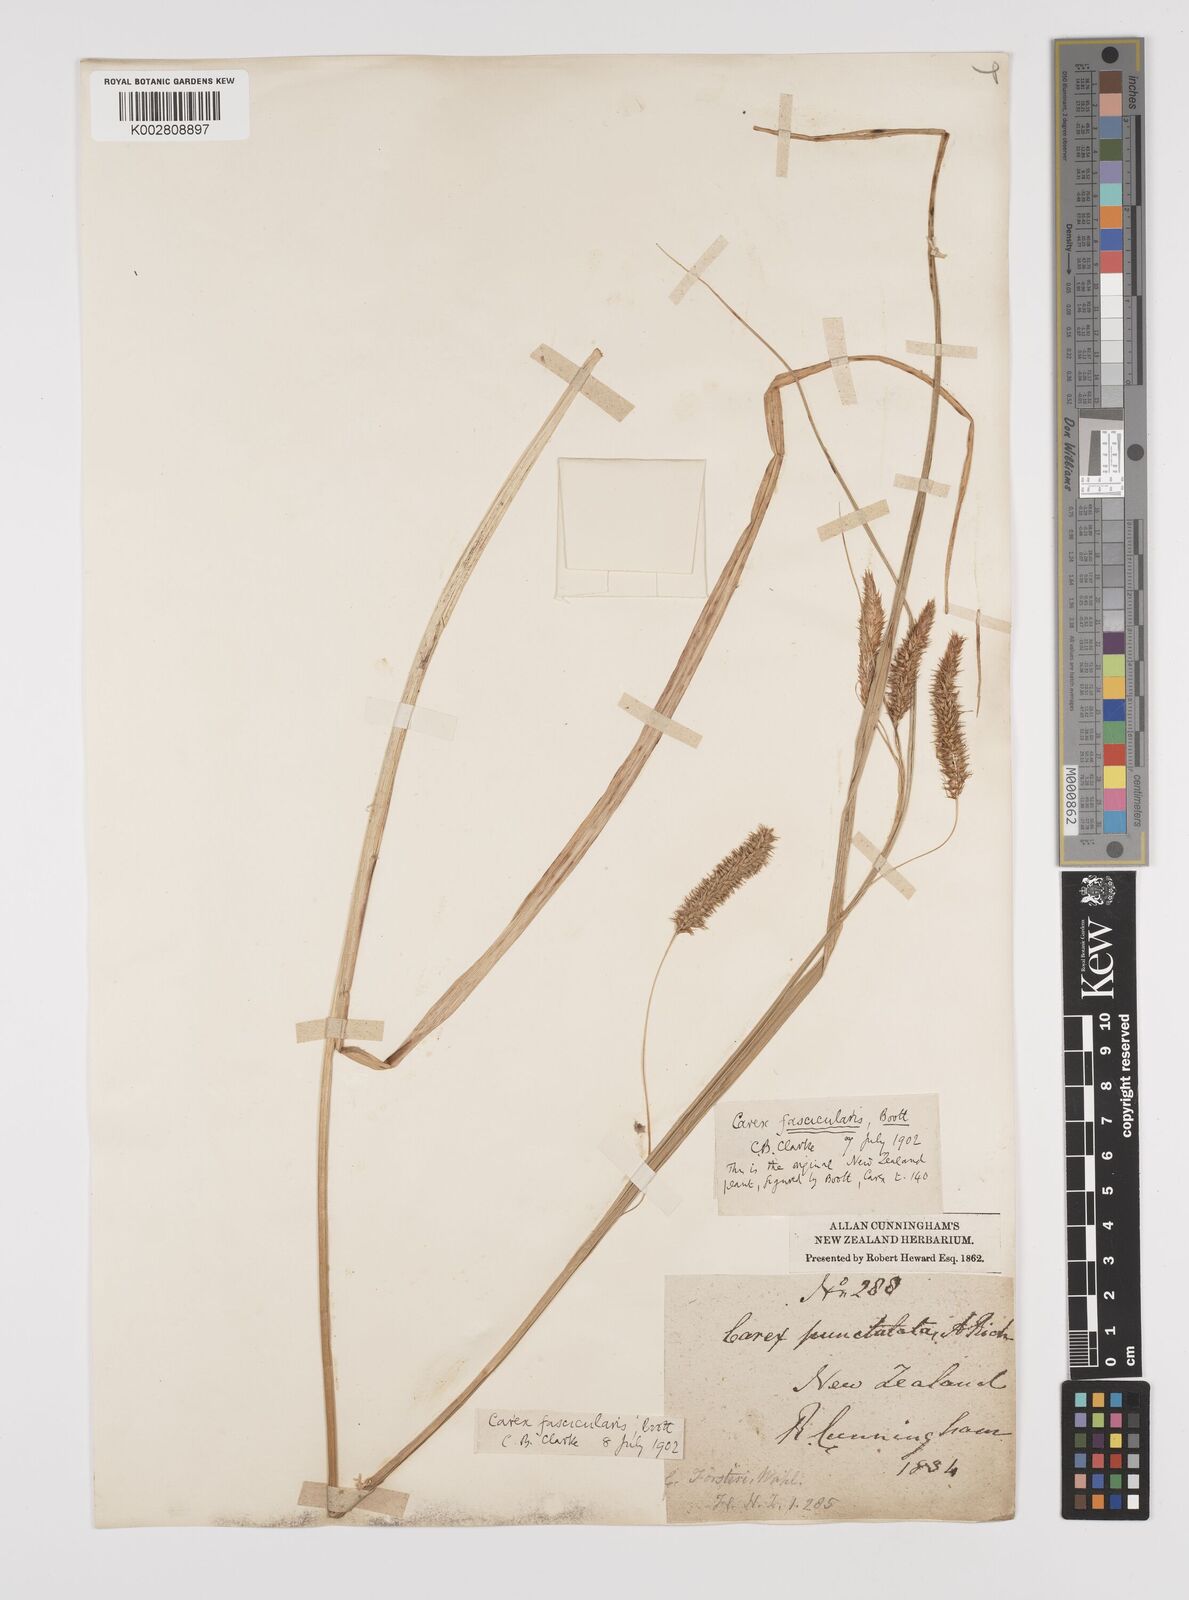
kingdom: Plantae
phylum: Tracheophyta
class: Liliopsida
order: Poales
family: Cyperaceae
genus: Carex
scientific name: Carex pseudocyperus
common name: Cyperus sedge
